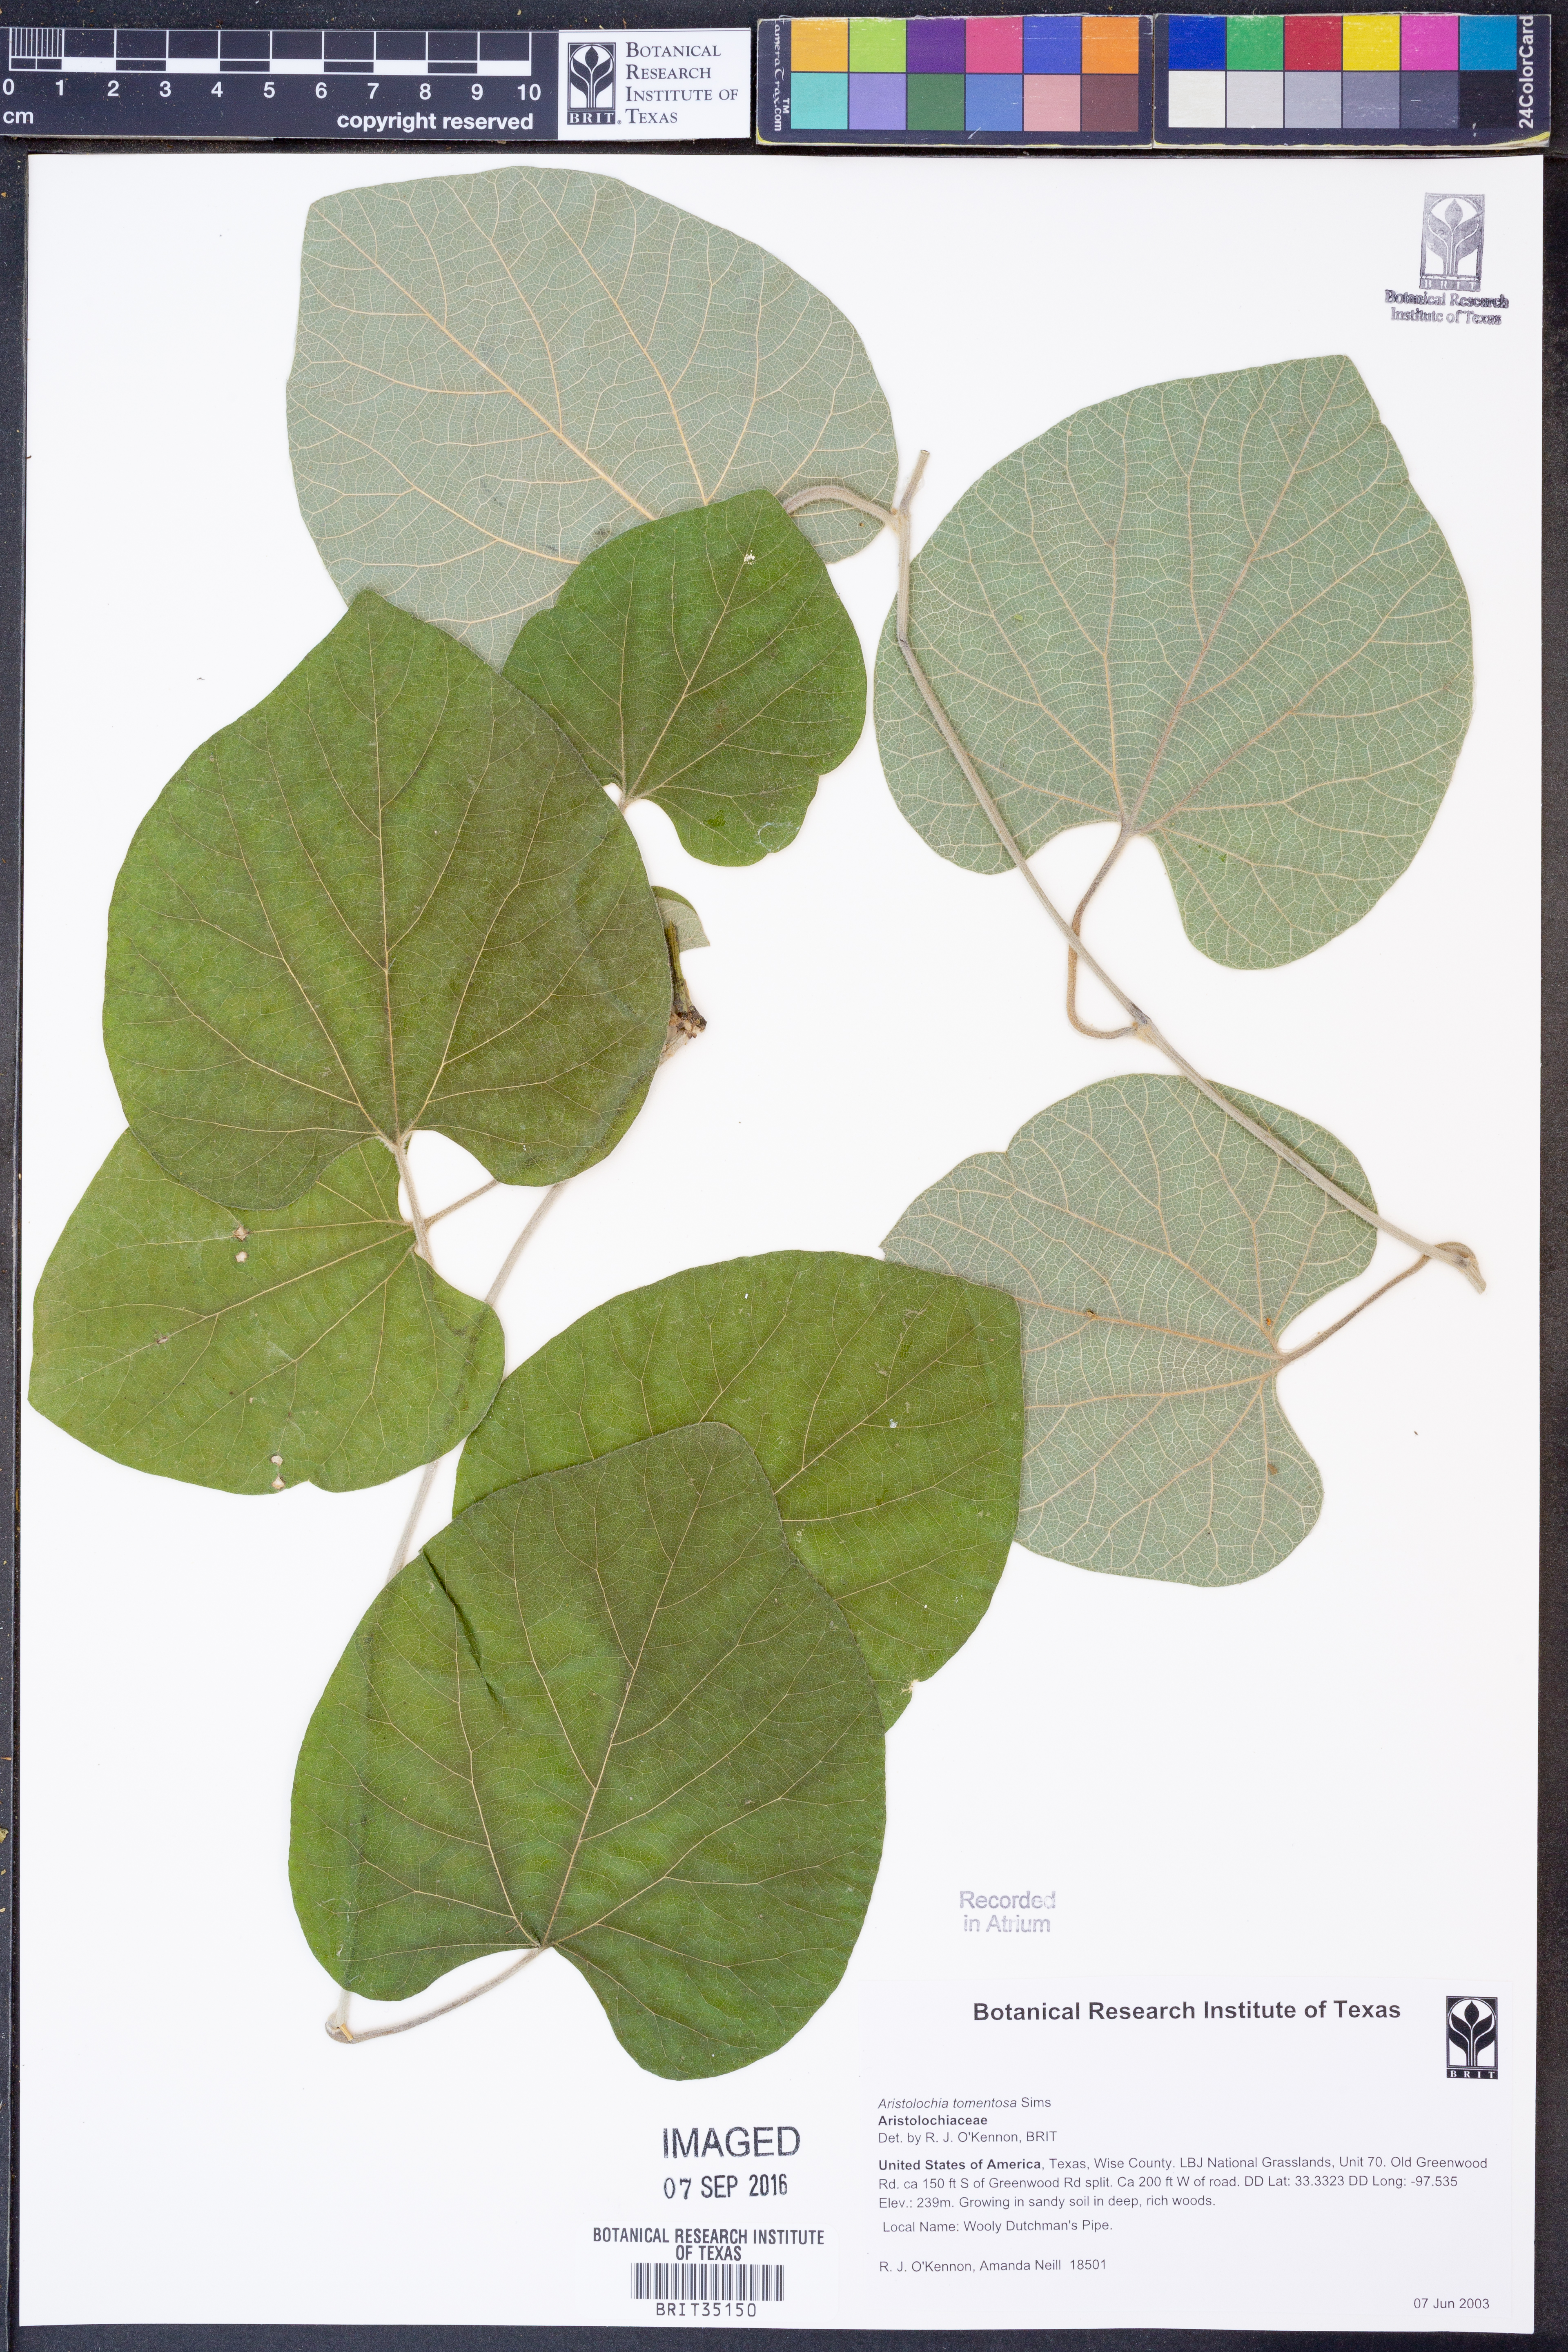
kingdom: Plantae
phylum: Tracheophyta
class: Magnoliopsida
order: Piperales
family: Aristolochiaceae
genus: Isotrema
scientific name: Isotrema tomentosum
